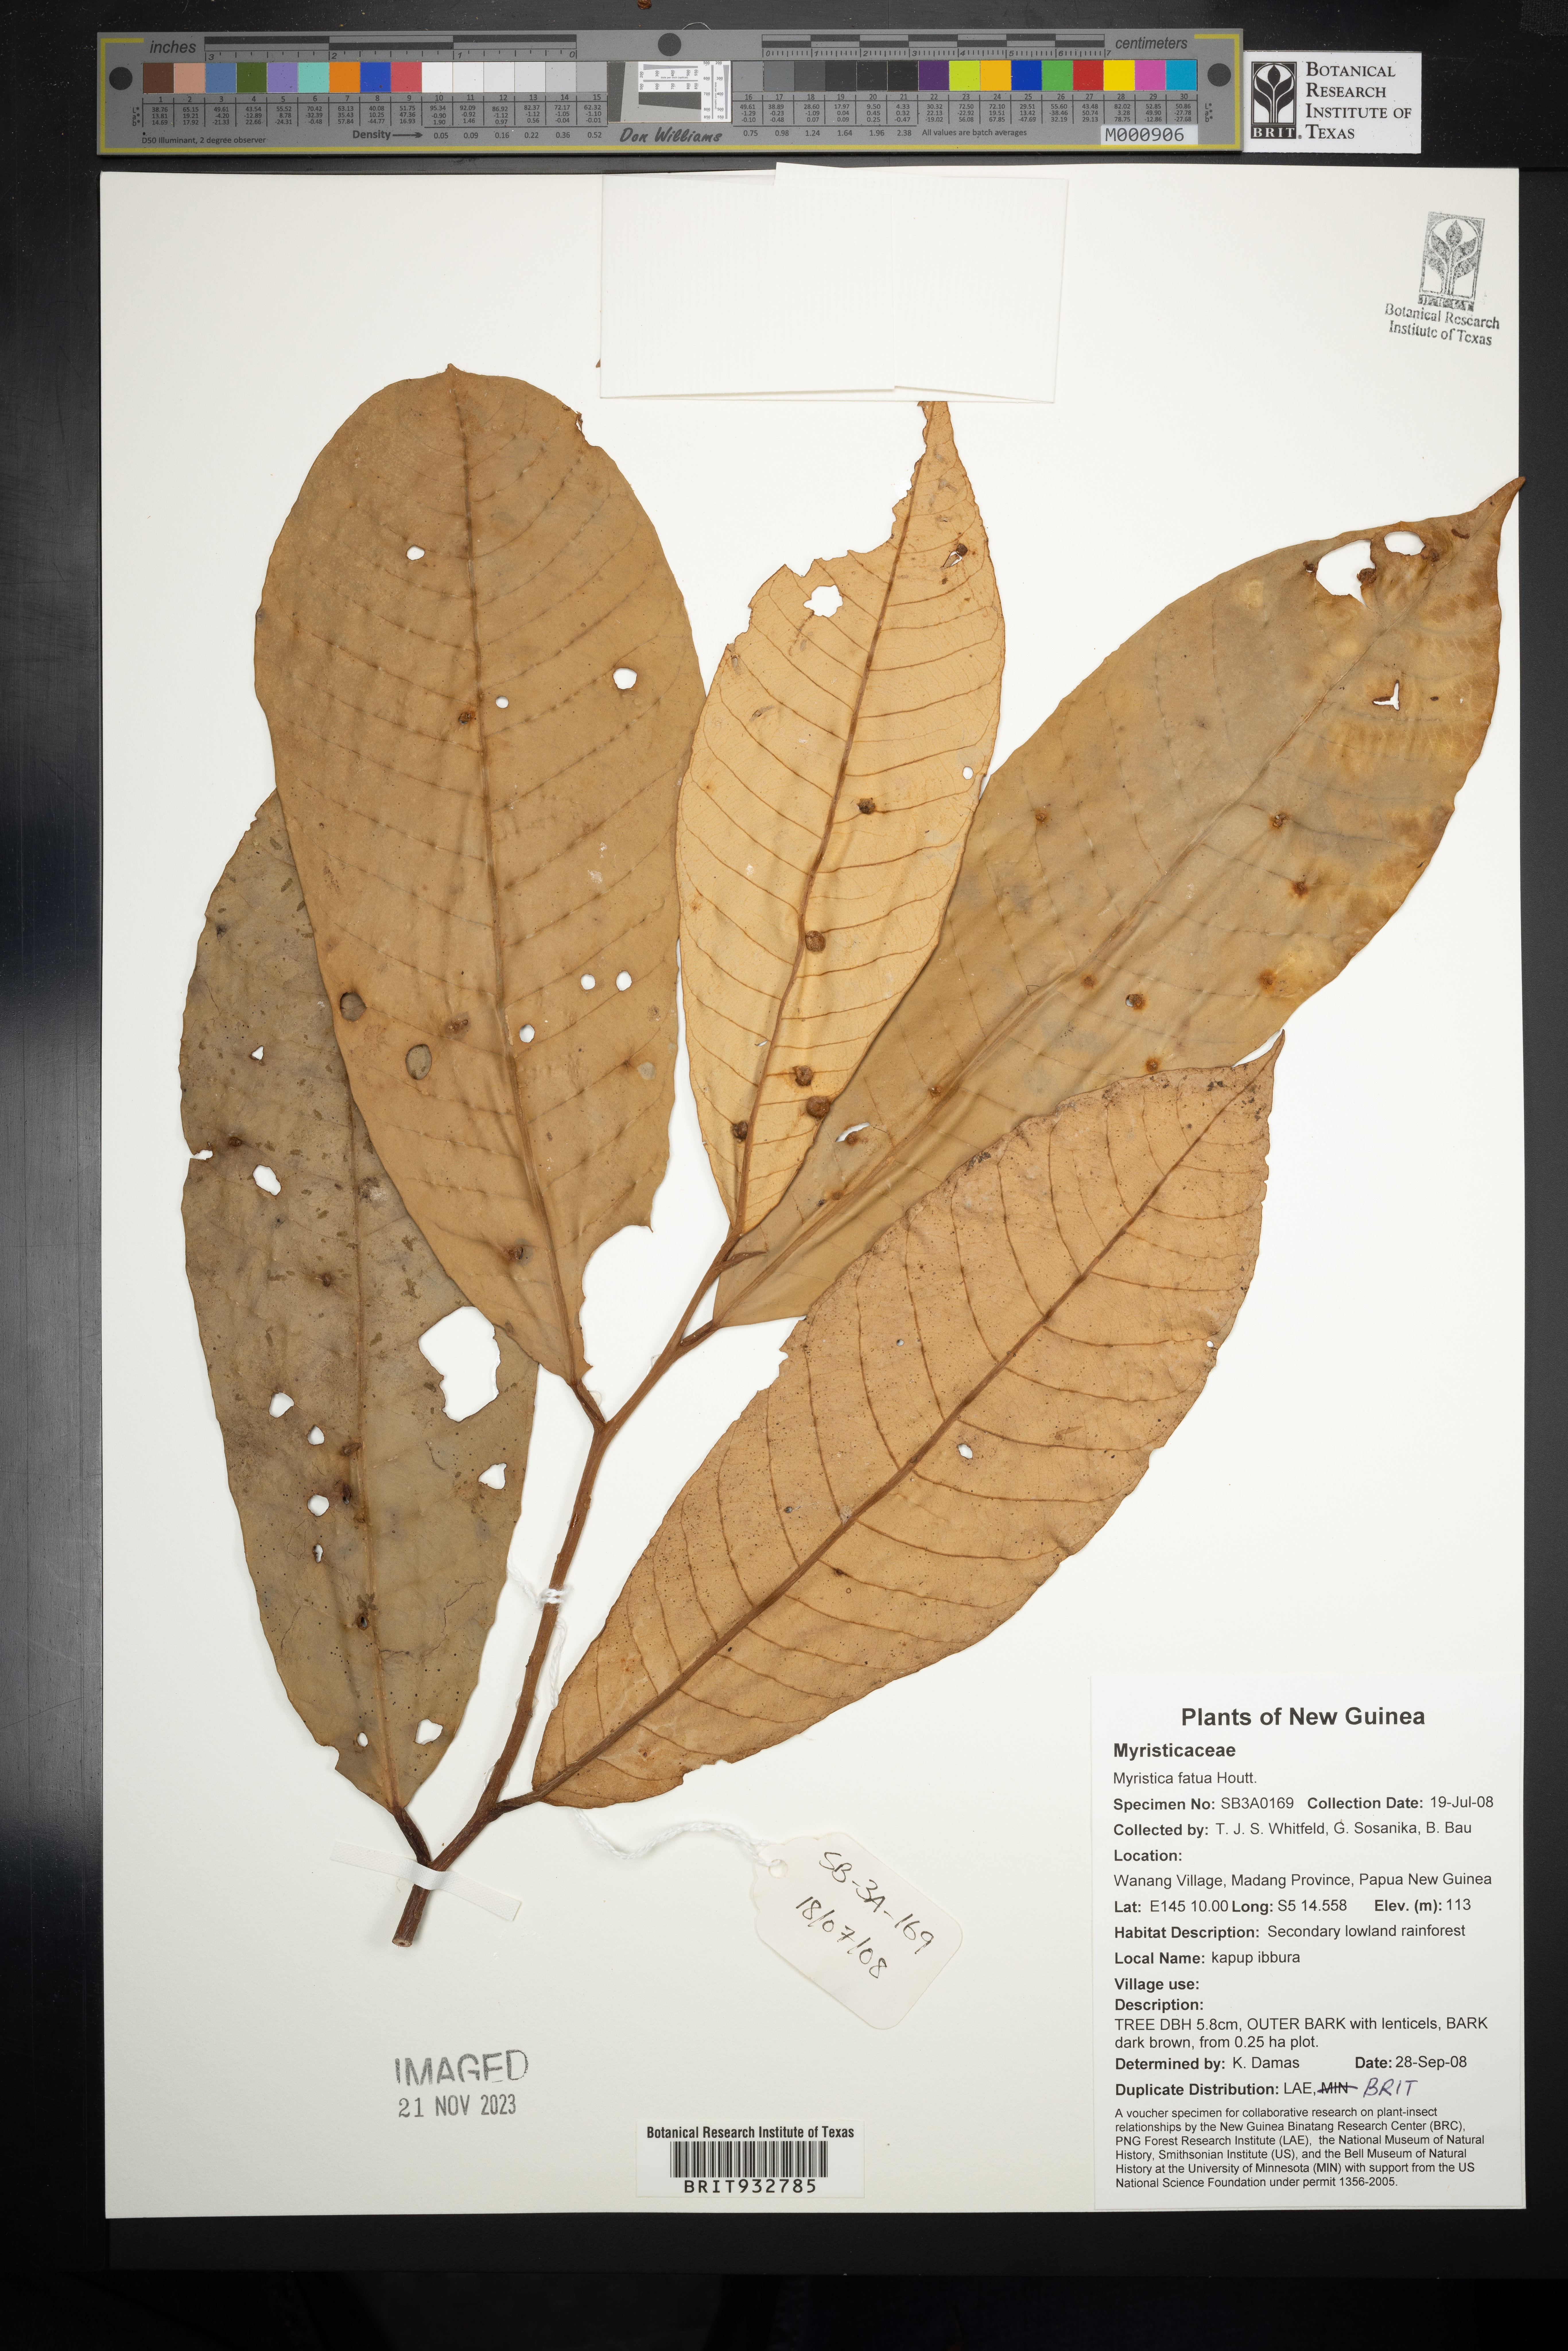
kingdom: Plantae
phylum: Tracheophyta
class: Magnoliopsida
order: Magnoliales
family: Myristicaceae
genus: Myristica
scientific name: Myristica
